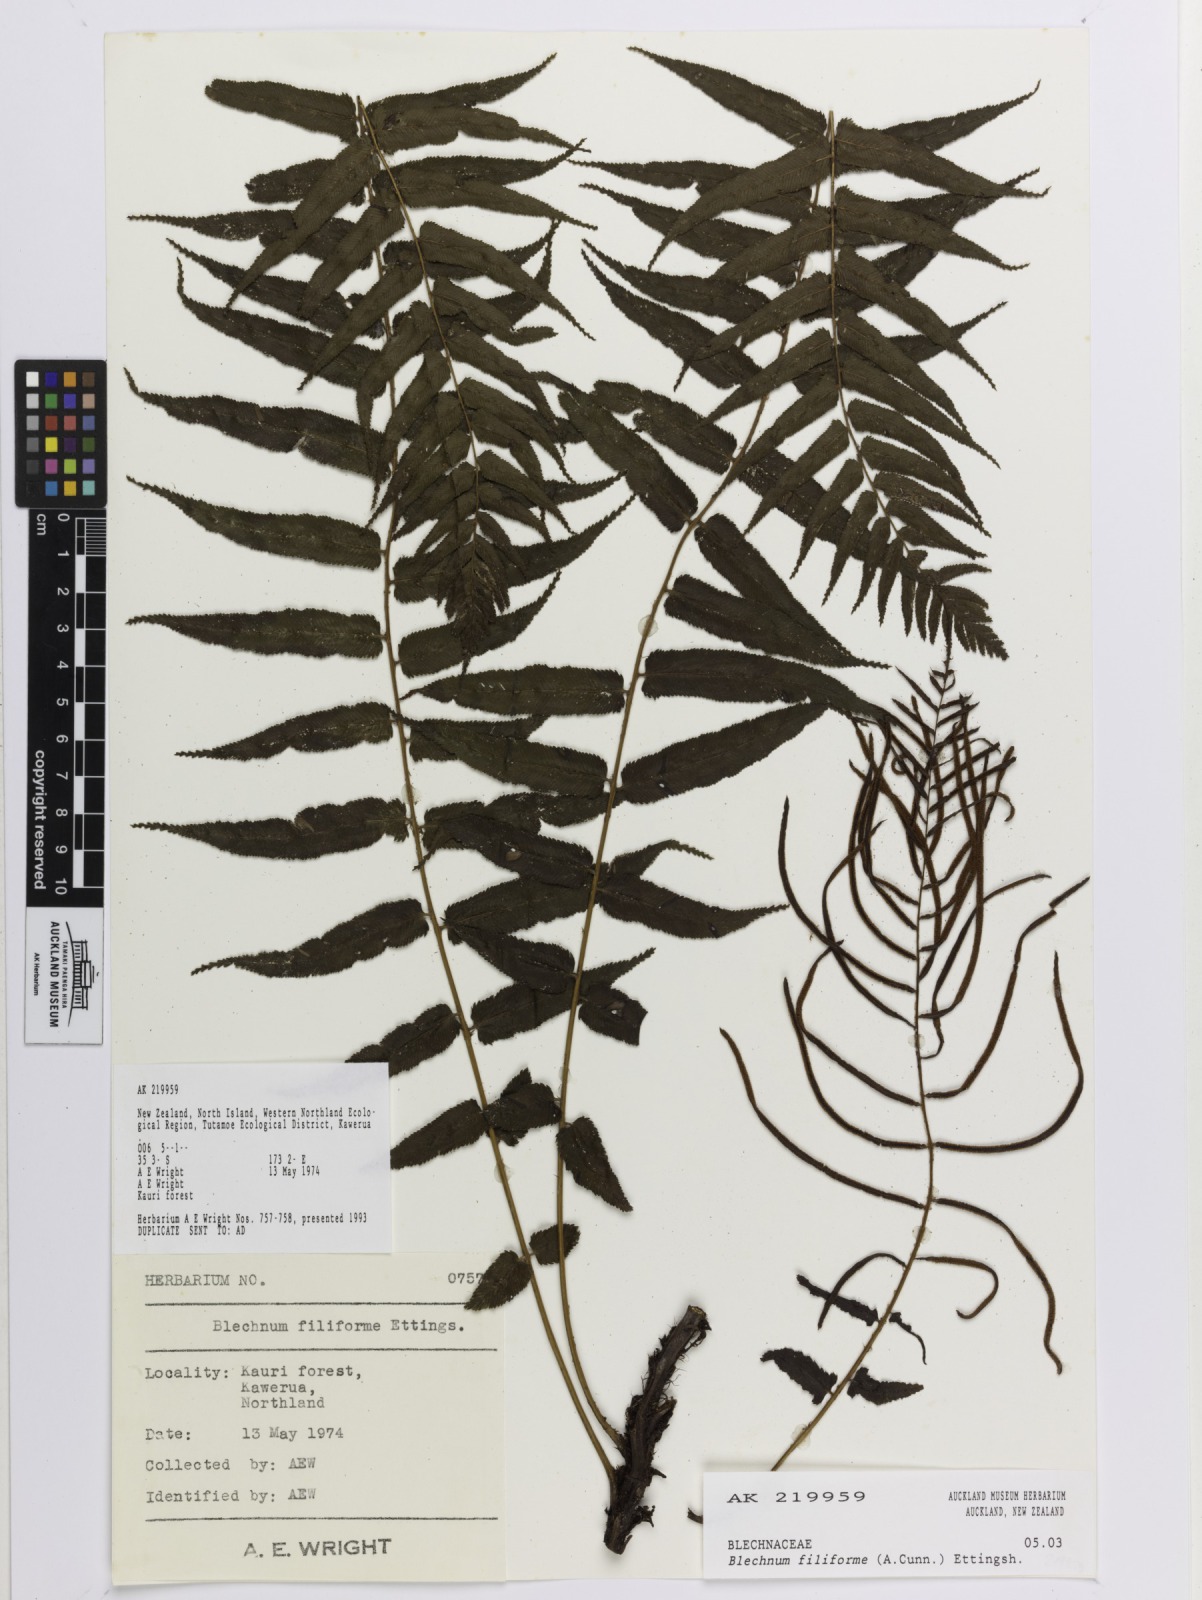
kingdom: Plantae
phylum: Tracheophyta
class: Polypodiopsida
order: Polypodiales
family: Blechnaceae
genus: Icarus
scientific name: Icarus filiformis
